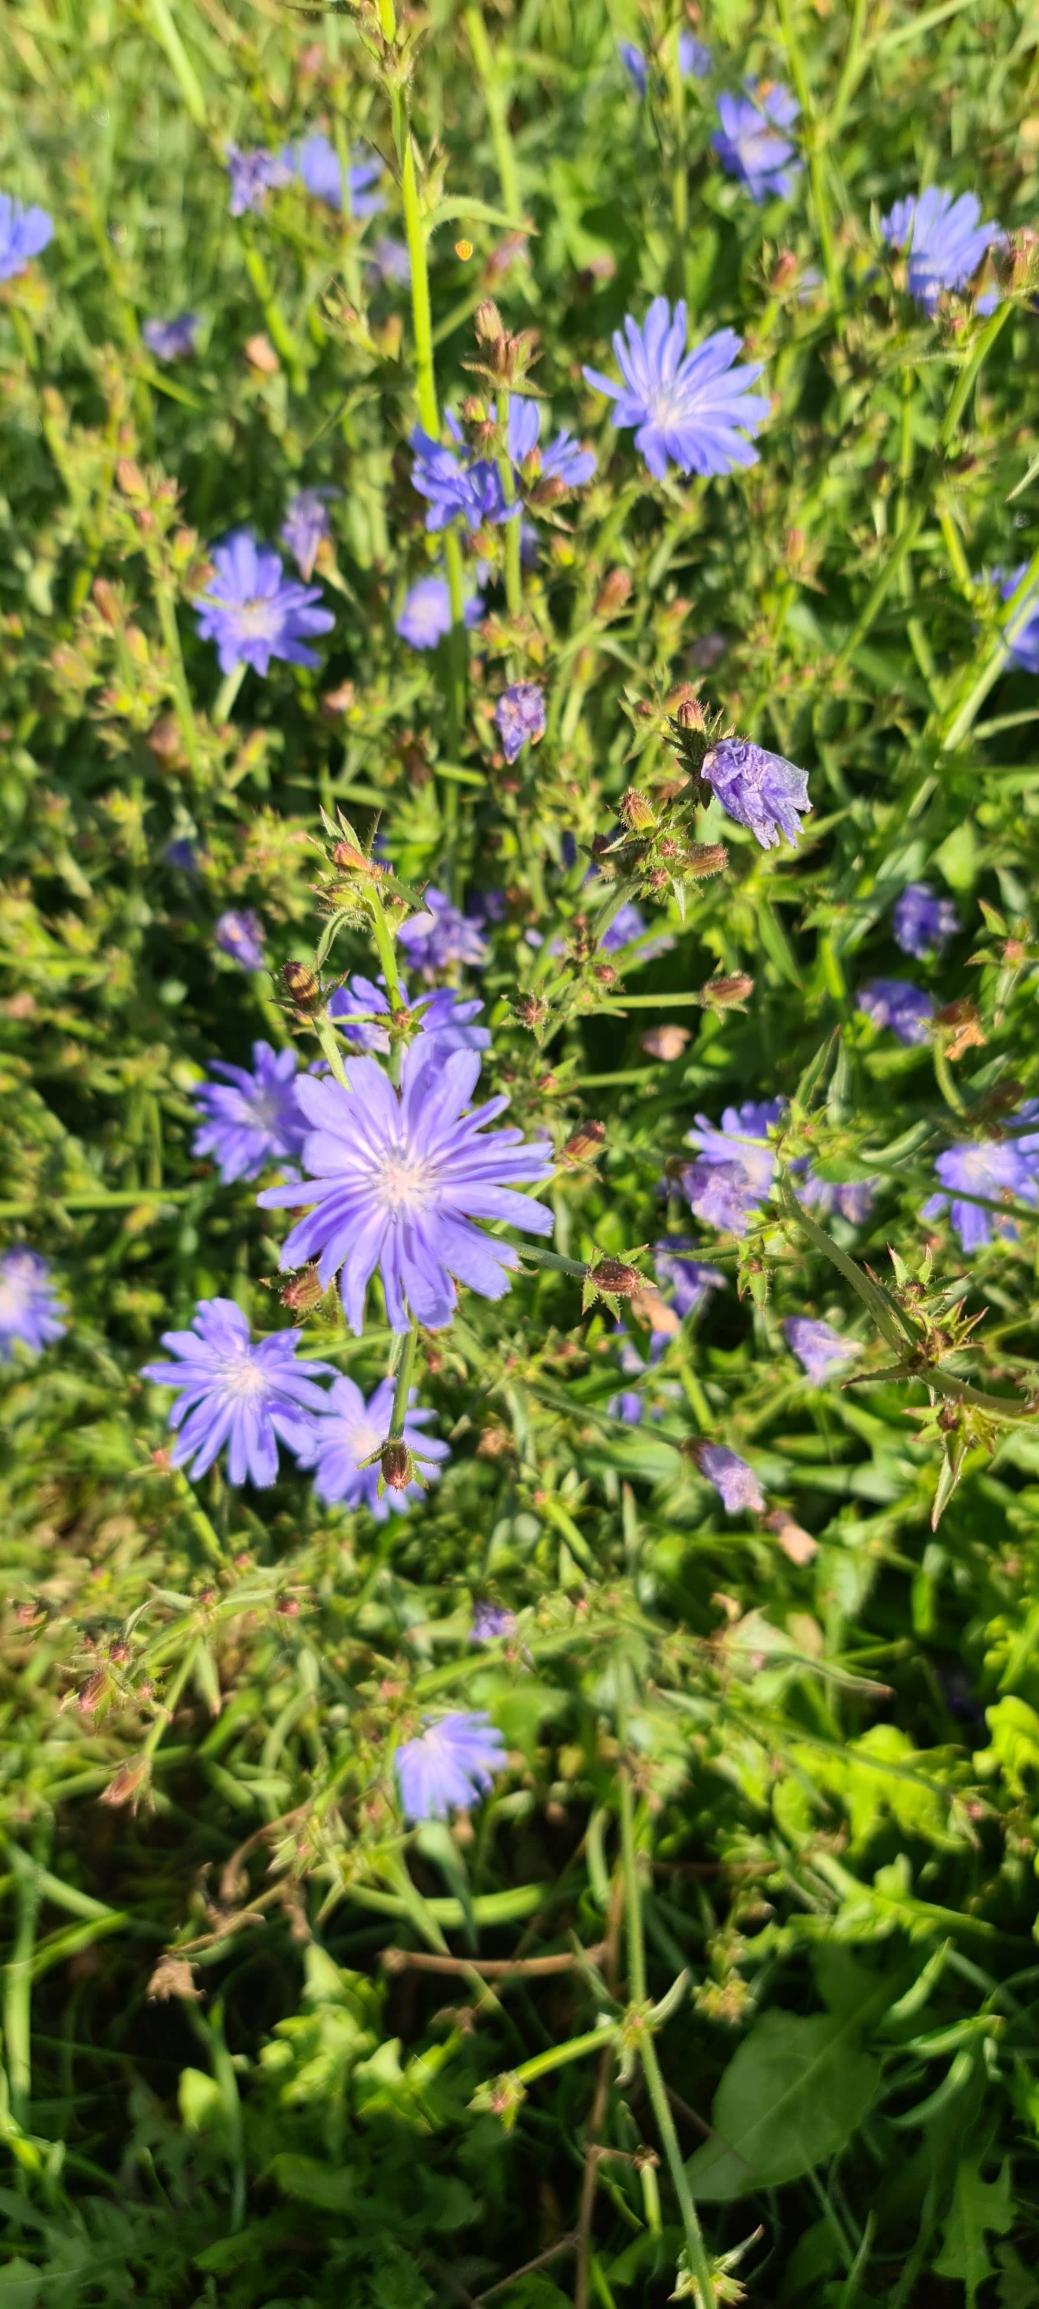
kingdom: Plantae
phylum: Tracheophyta
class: Magnoliopsida
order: Asterales
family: Asteraceae
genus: Cichorium
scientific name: Cichorium intybus
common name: Cikorie
